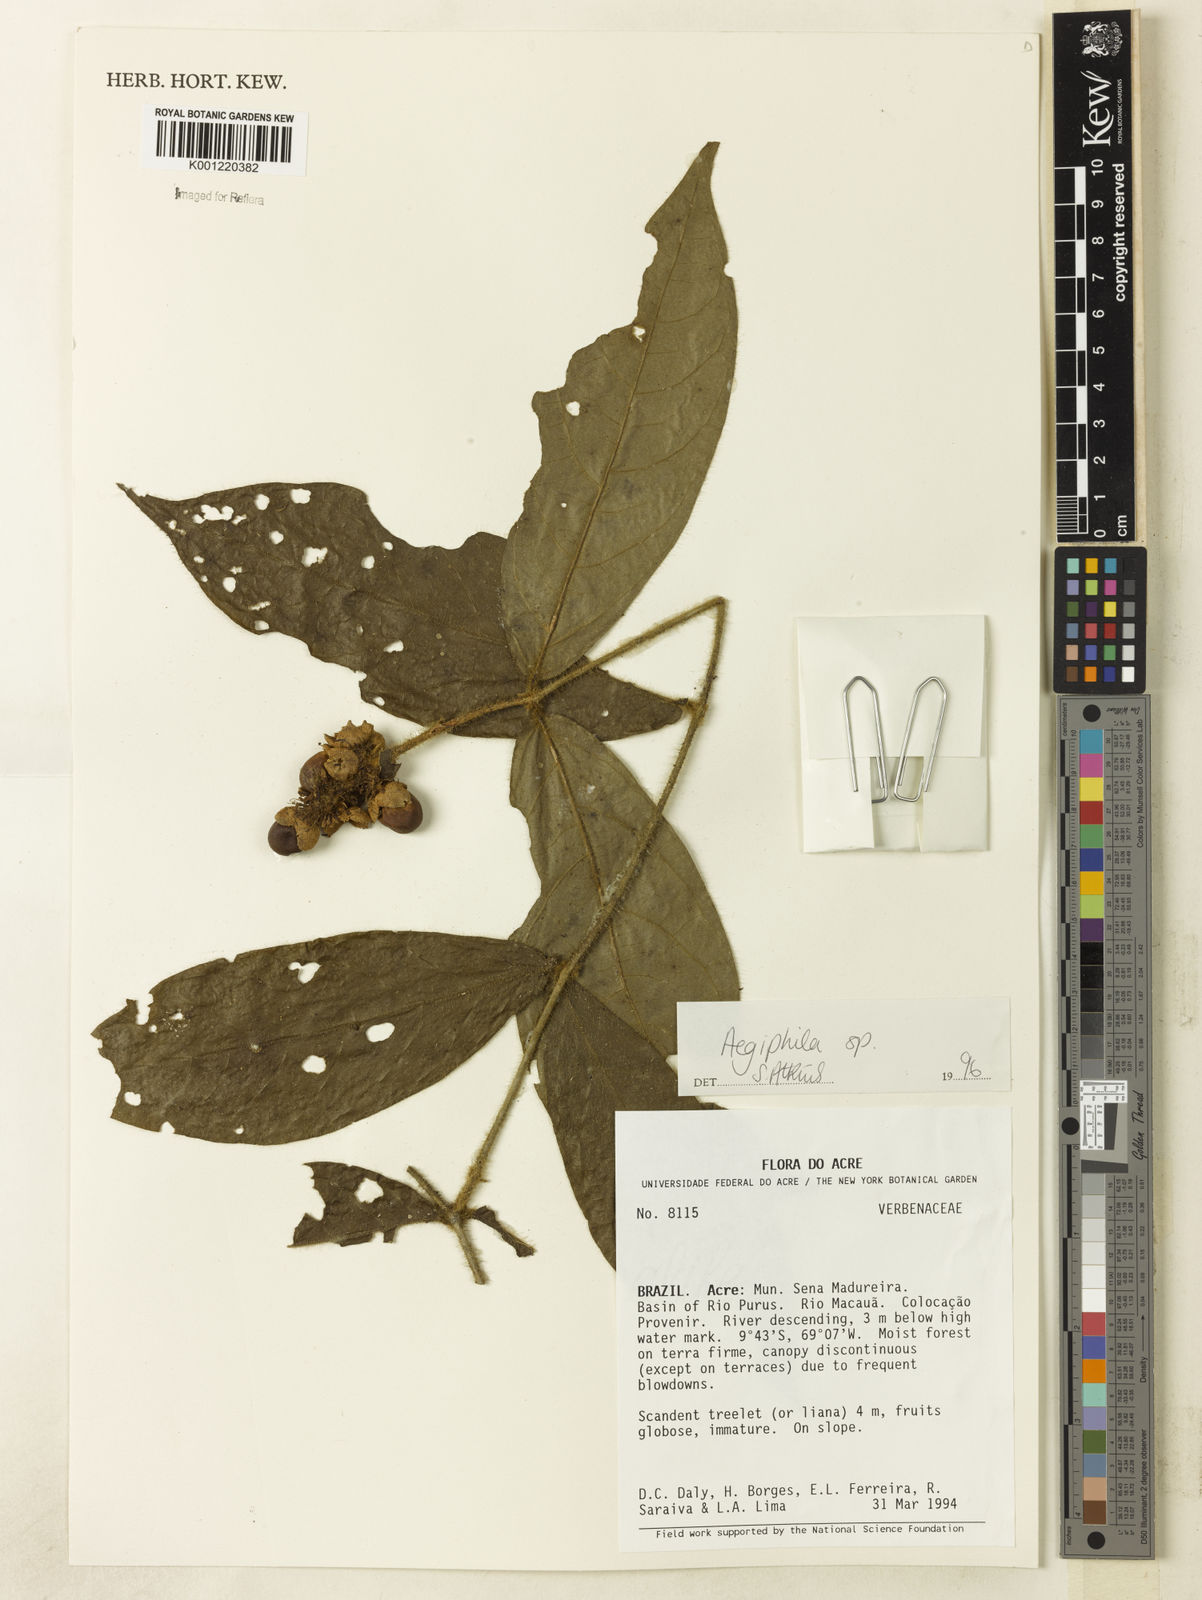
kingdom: Plantae
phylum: Tracheophyta
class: Magnoliopsida
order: Lamiales
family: Lamiaceae
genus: Aegiphila
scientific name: Aegiphila
